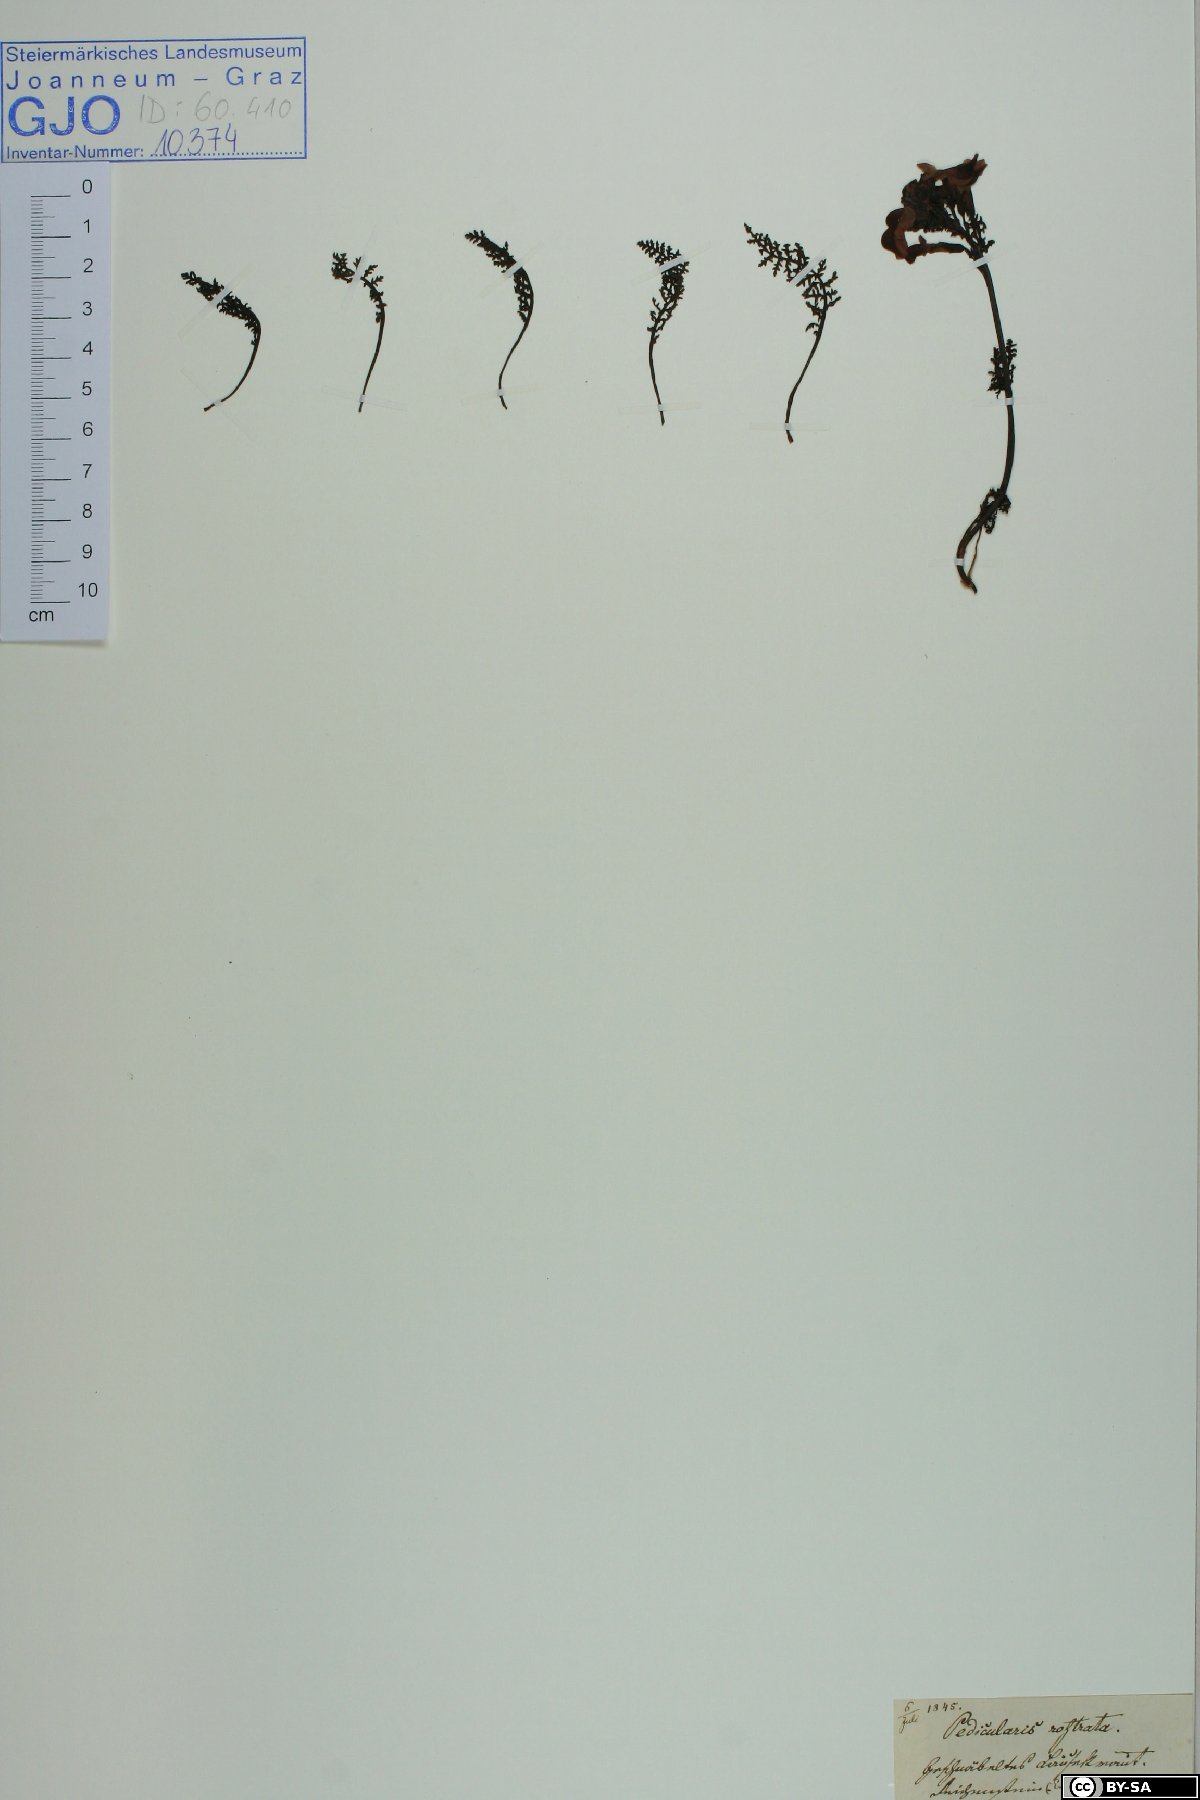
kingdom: Plantae
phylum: Tracheophyta
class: Magnoliopsida
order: Lamiales
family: Orobanchaceae
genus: Pedicularis
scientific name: Pedicularis rostratocapitata
